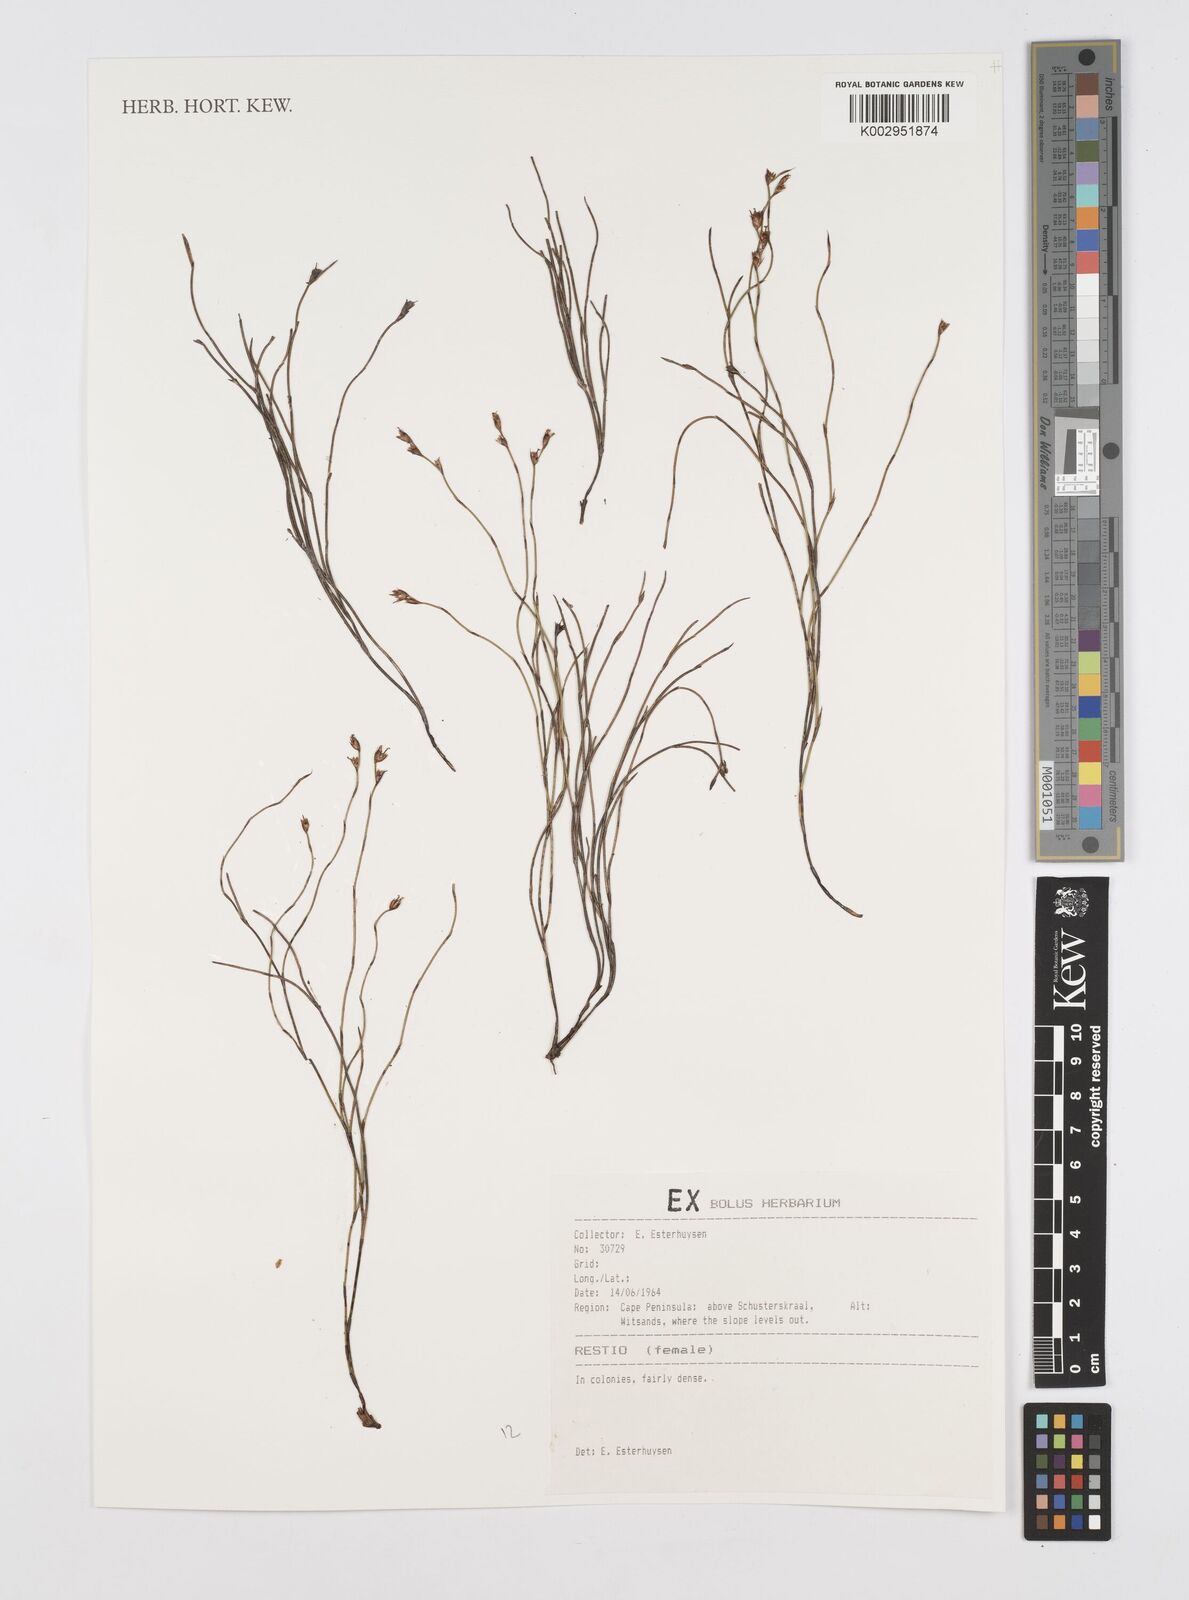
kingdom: Plantae
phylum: Tracheophyta
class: Liliopsida
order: Poales
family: Restionaceae
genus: Restio
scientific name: Restio
